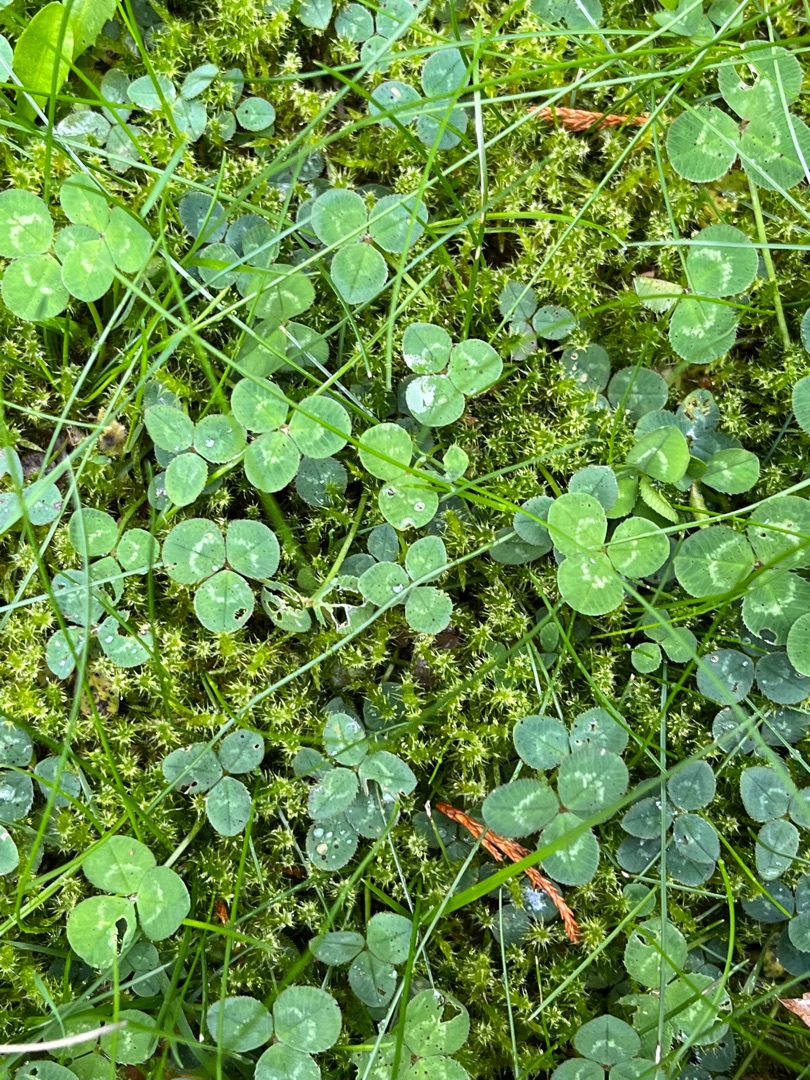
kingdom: Plantae
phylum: Tracheophyta
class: Magnoliopsida
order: Fabales
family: Fabaceae
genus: Trifolium
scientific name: Trifolium repens
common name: Hvid-kløver
